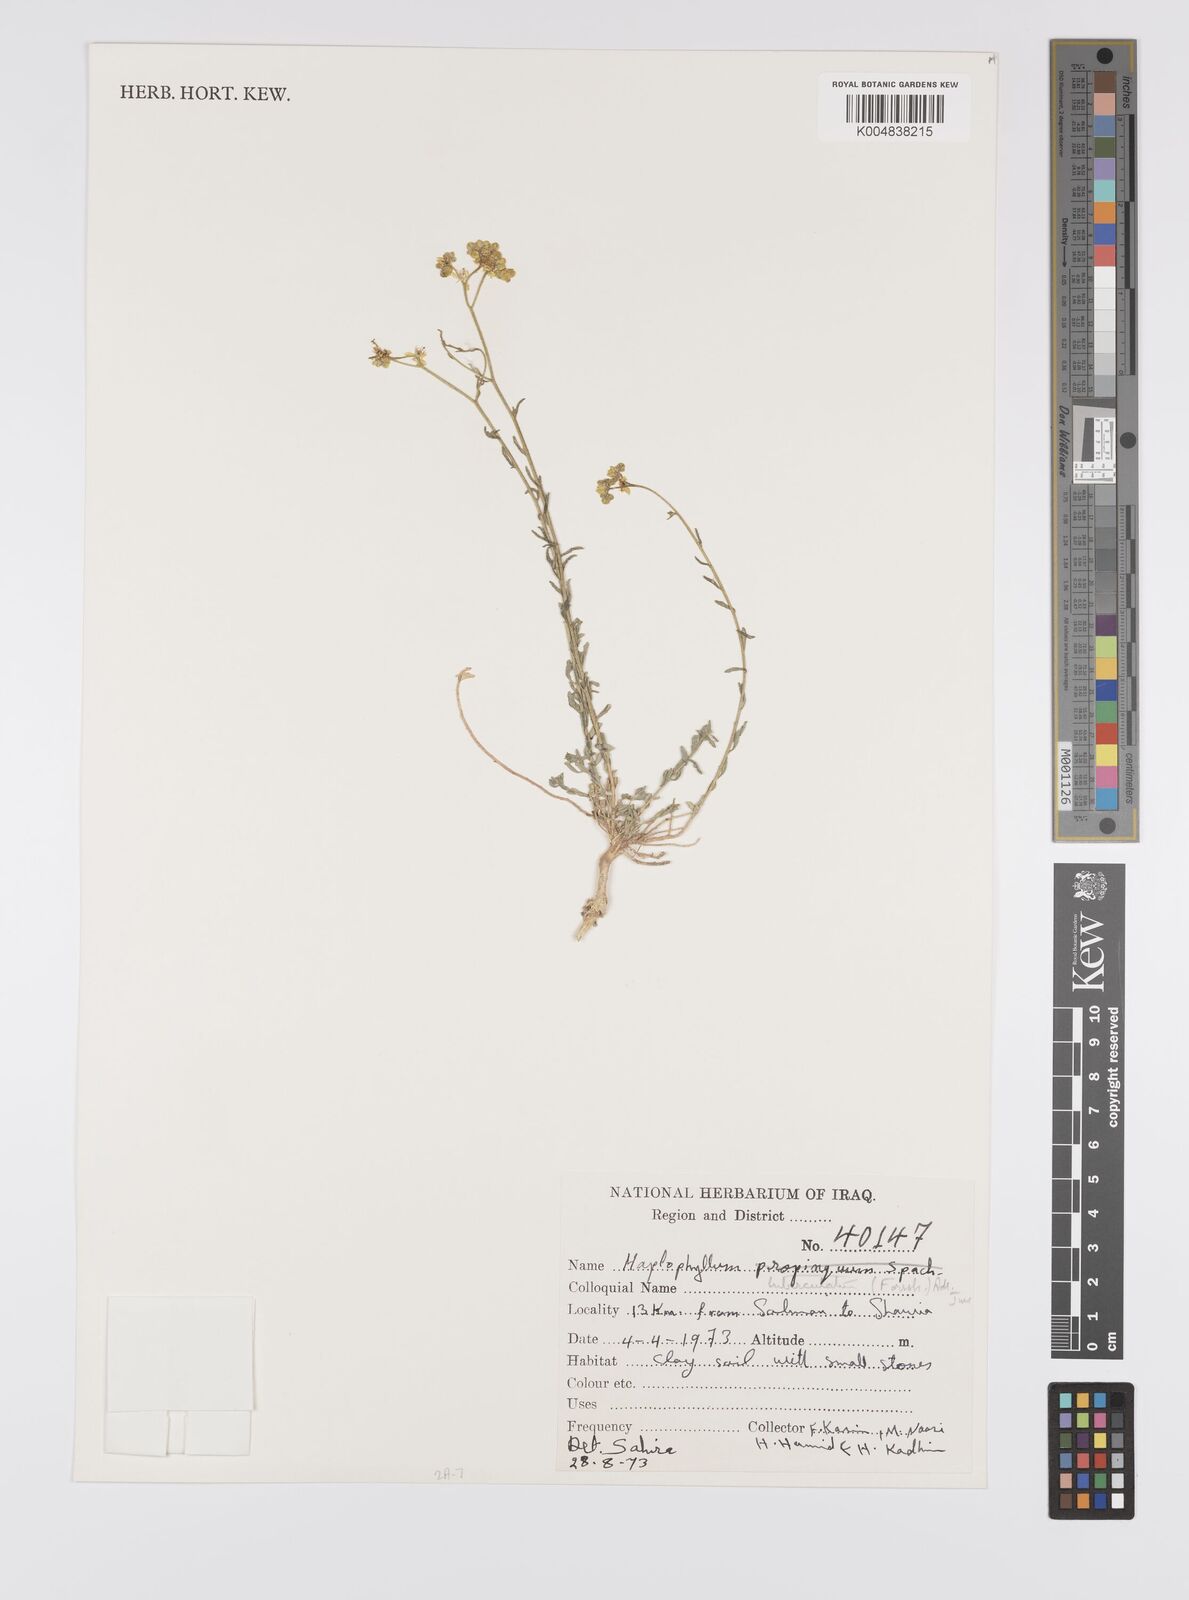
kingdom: Plantae
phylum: Tracheophyta
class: Magnoliopsida
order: Sapindales
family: Rutaceae
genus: Haplophyllum
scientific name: Haplophyllum tuberculatum
